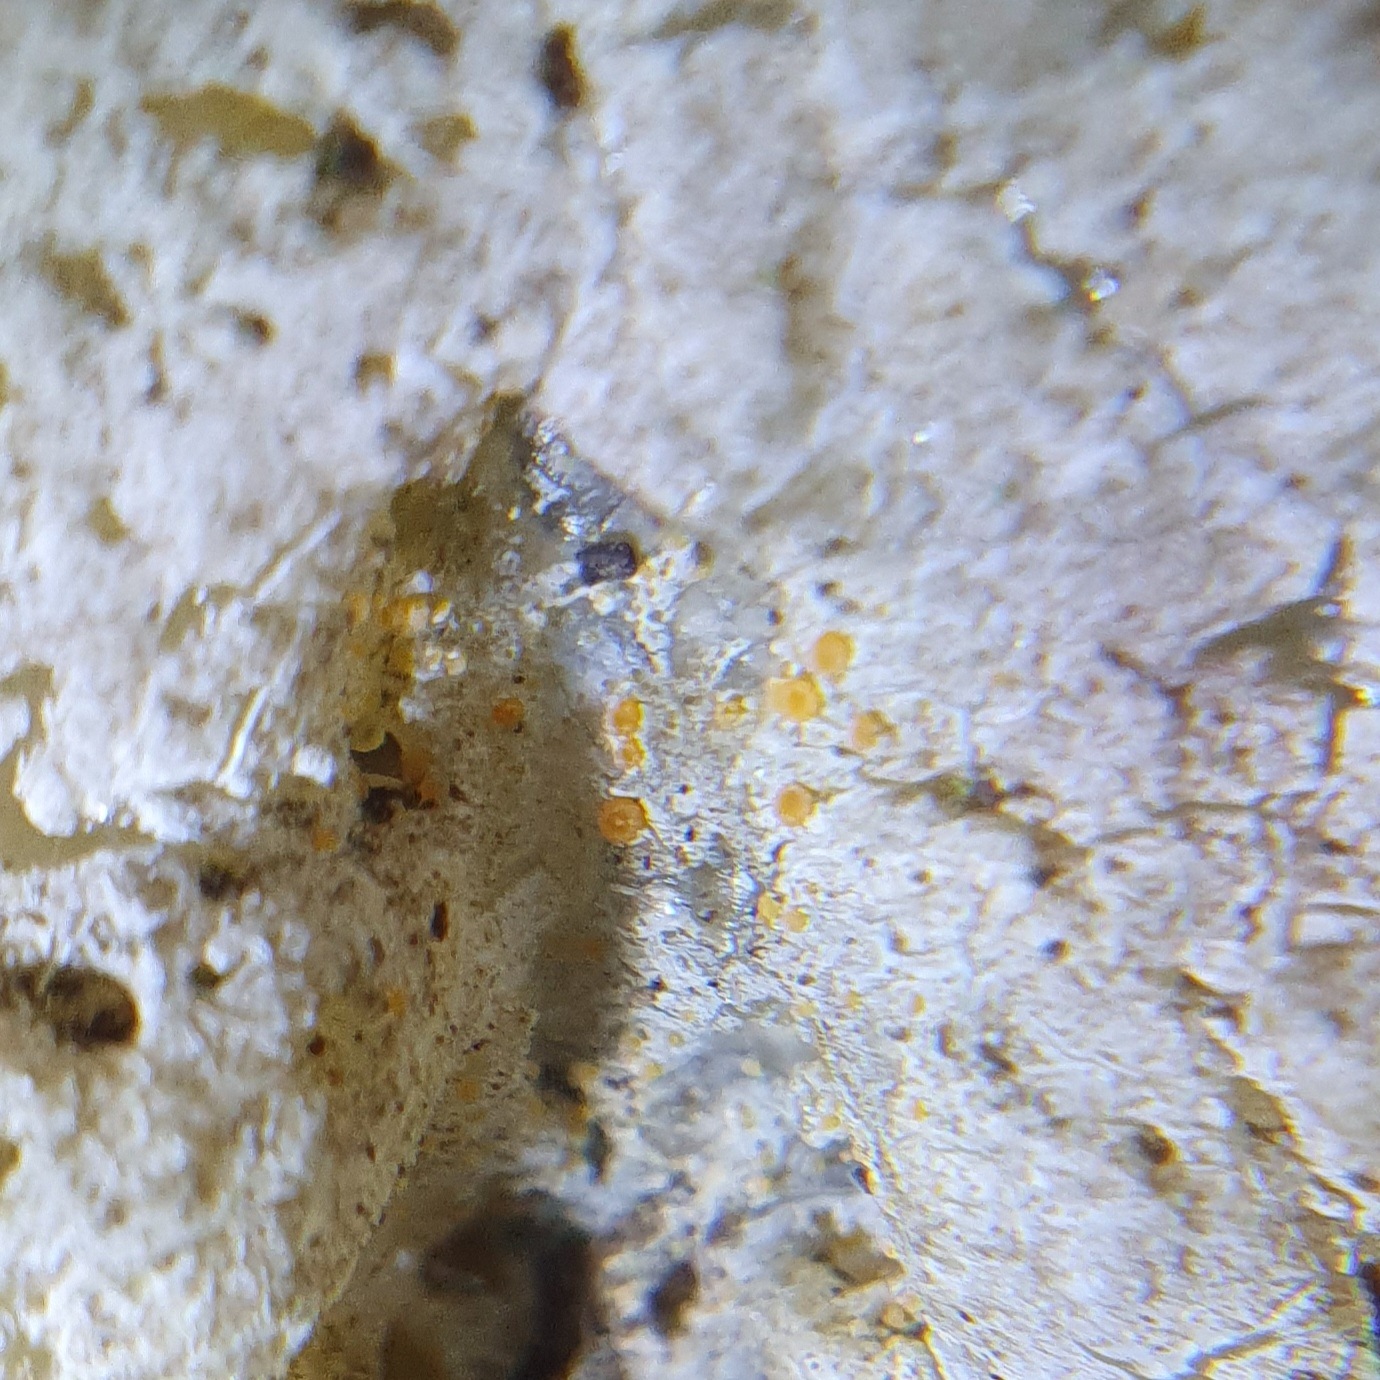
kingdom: Fungi
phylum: Ascomycota
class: Sareomycetes
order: Sareales
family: Sareaceae
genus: Sarea
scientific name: Sarea resinae
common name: orangegul harpiksskive
